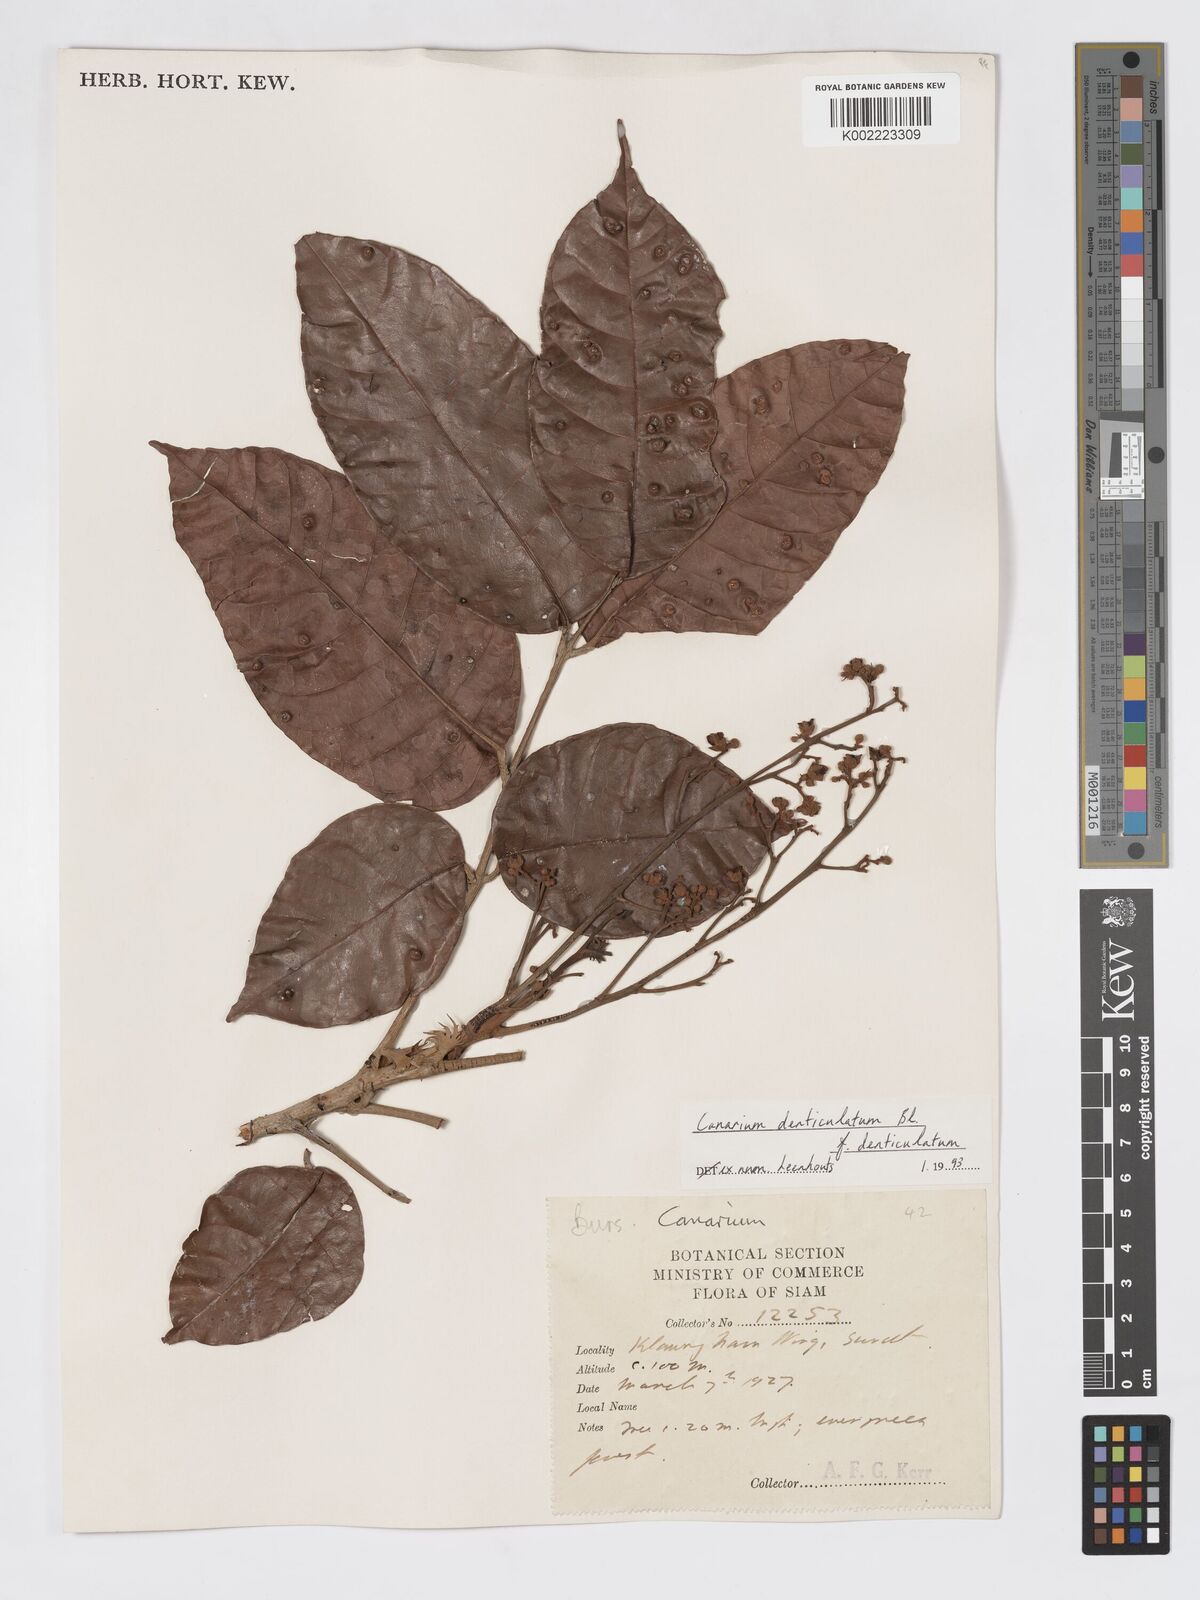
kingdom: Plantae
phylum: Tracheophyta
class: Magnoliopsida
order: Sapindales
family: Burseraceae
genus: Canarium
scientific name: Canarium denticulatum
